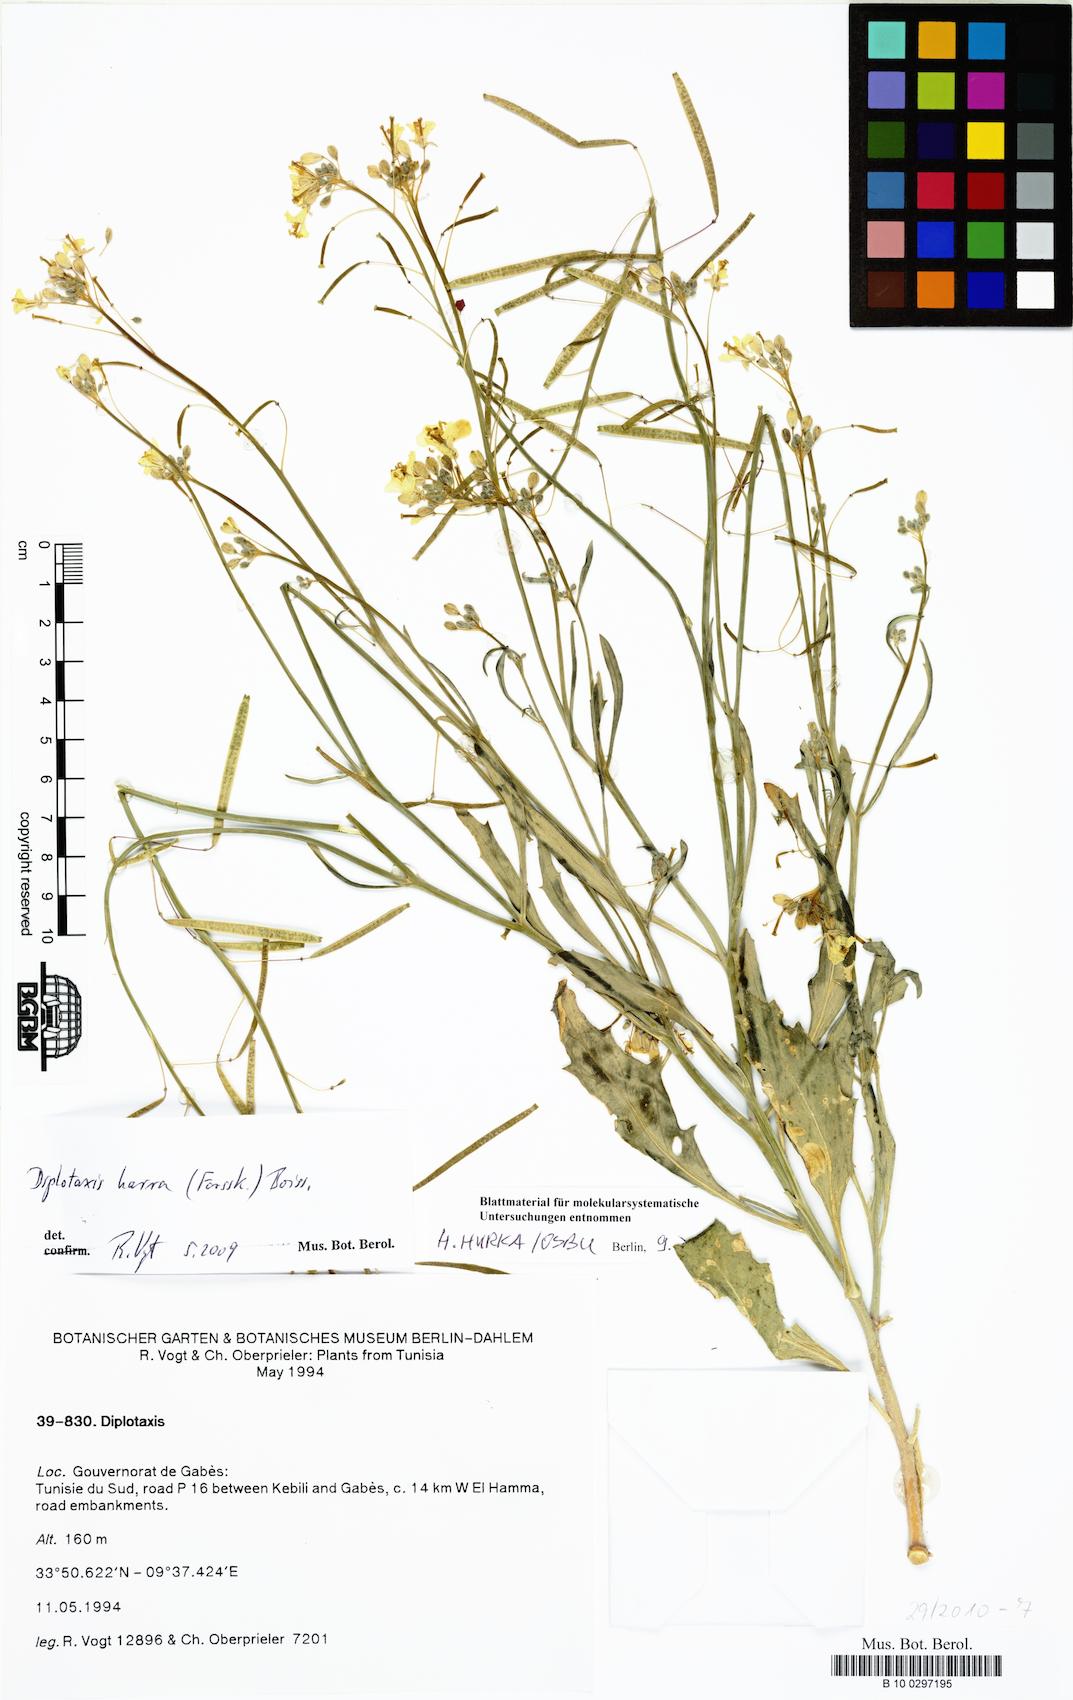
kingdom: Plantae
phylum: Tracheophyta
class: Magnoliopsida
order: Brassicales
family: Brassicaceae
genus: Diplotaxis
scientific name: Diplotaxis harra
